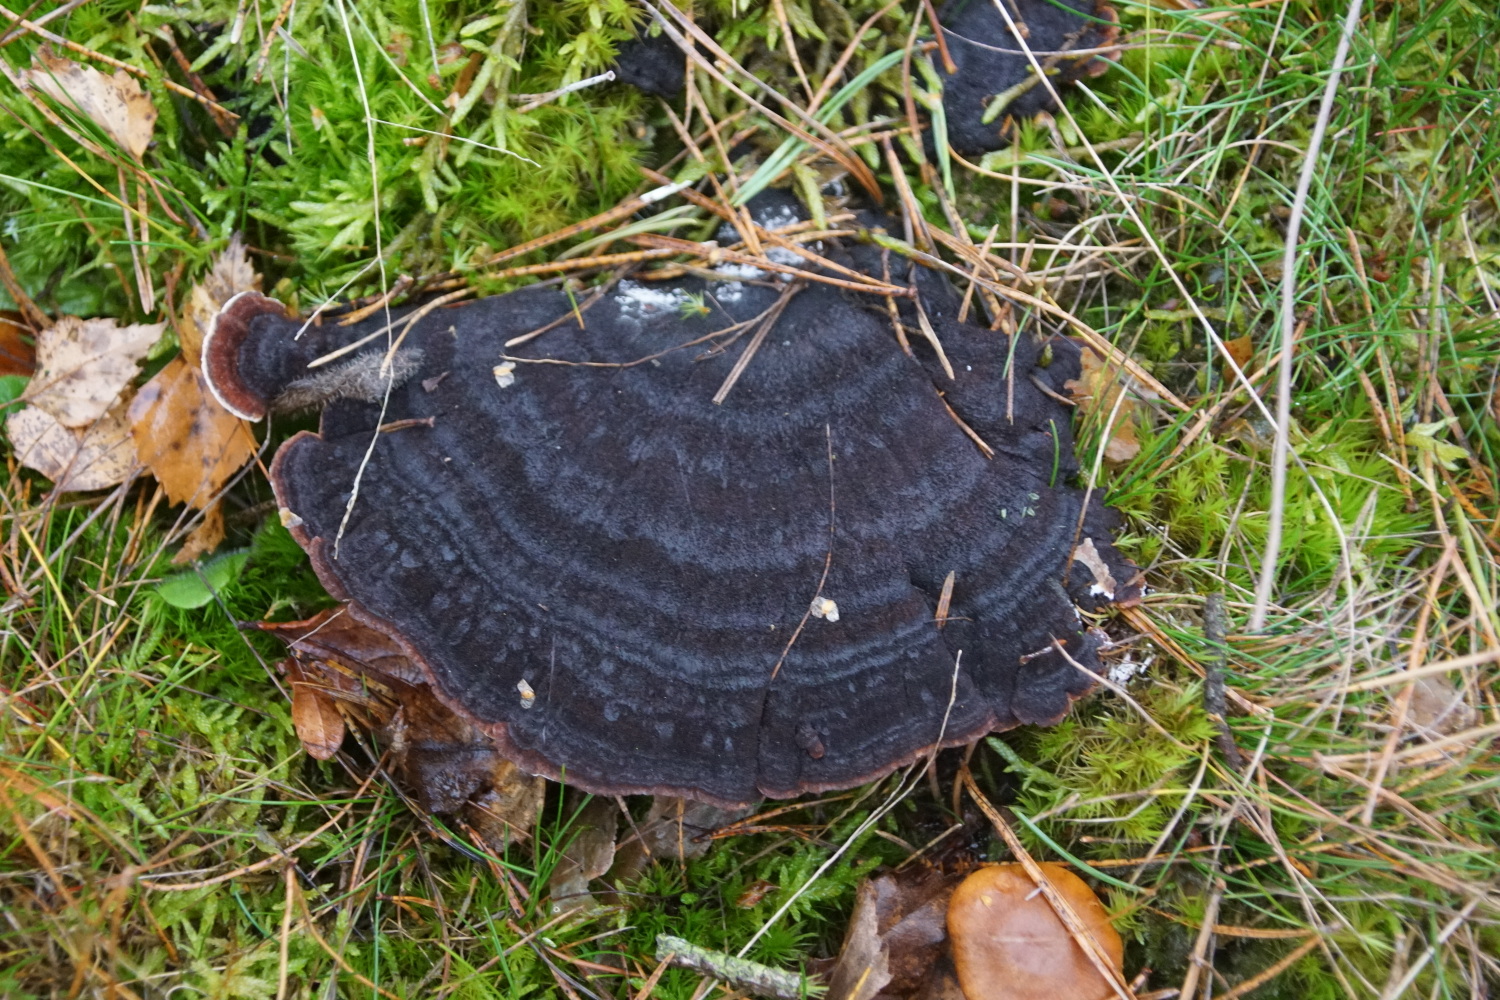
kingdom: Fungi
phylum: Basidiomycota
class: Agaricomycetes
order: Polyporales
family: Ischnodermataceae
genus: Ischnoderma
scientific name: Ischnoderma benzoinum
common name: gran-tjæreporesvamp
